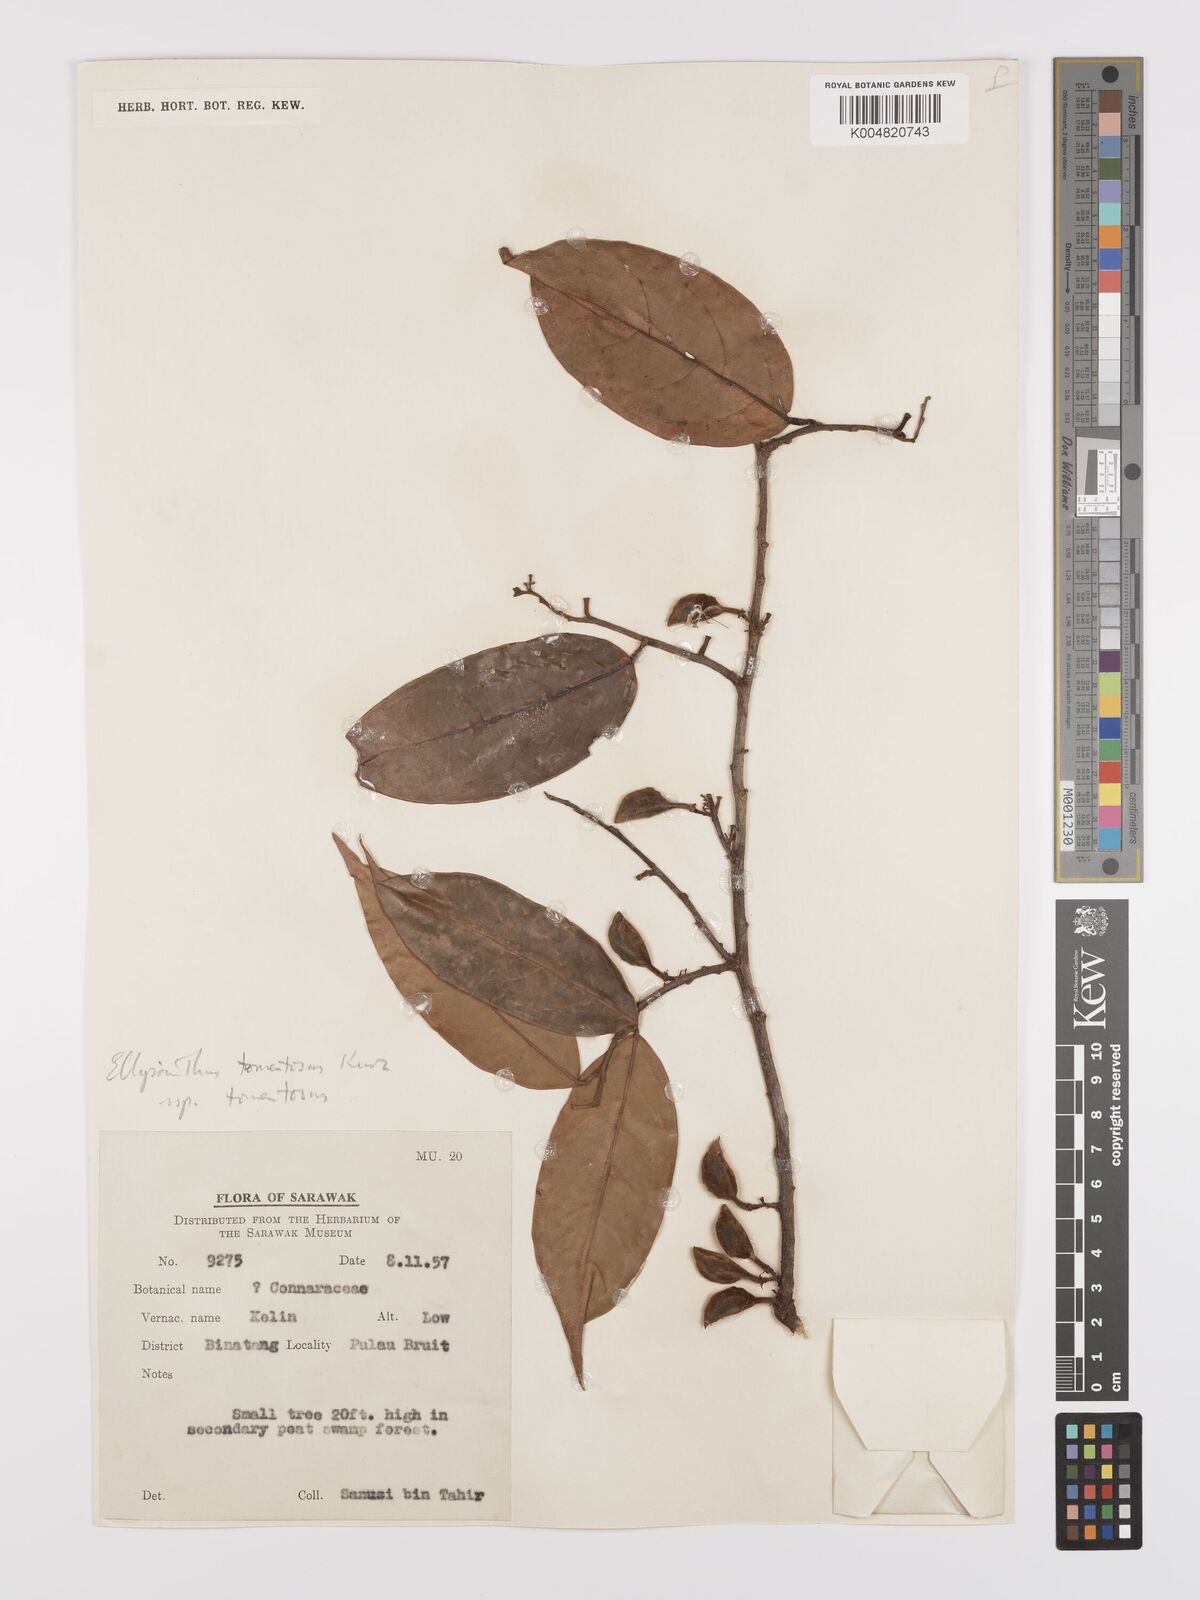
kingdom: Plantae
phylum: Tracheophyta
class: Magnoliopsida
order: Oxalidales
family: Connaraceae
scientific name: Connaraceae
